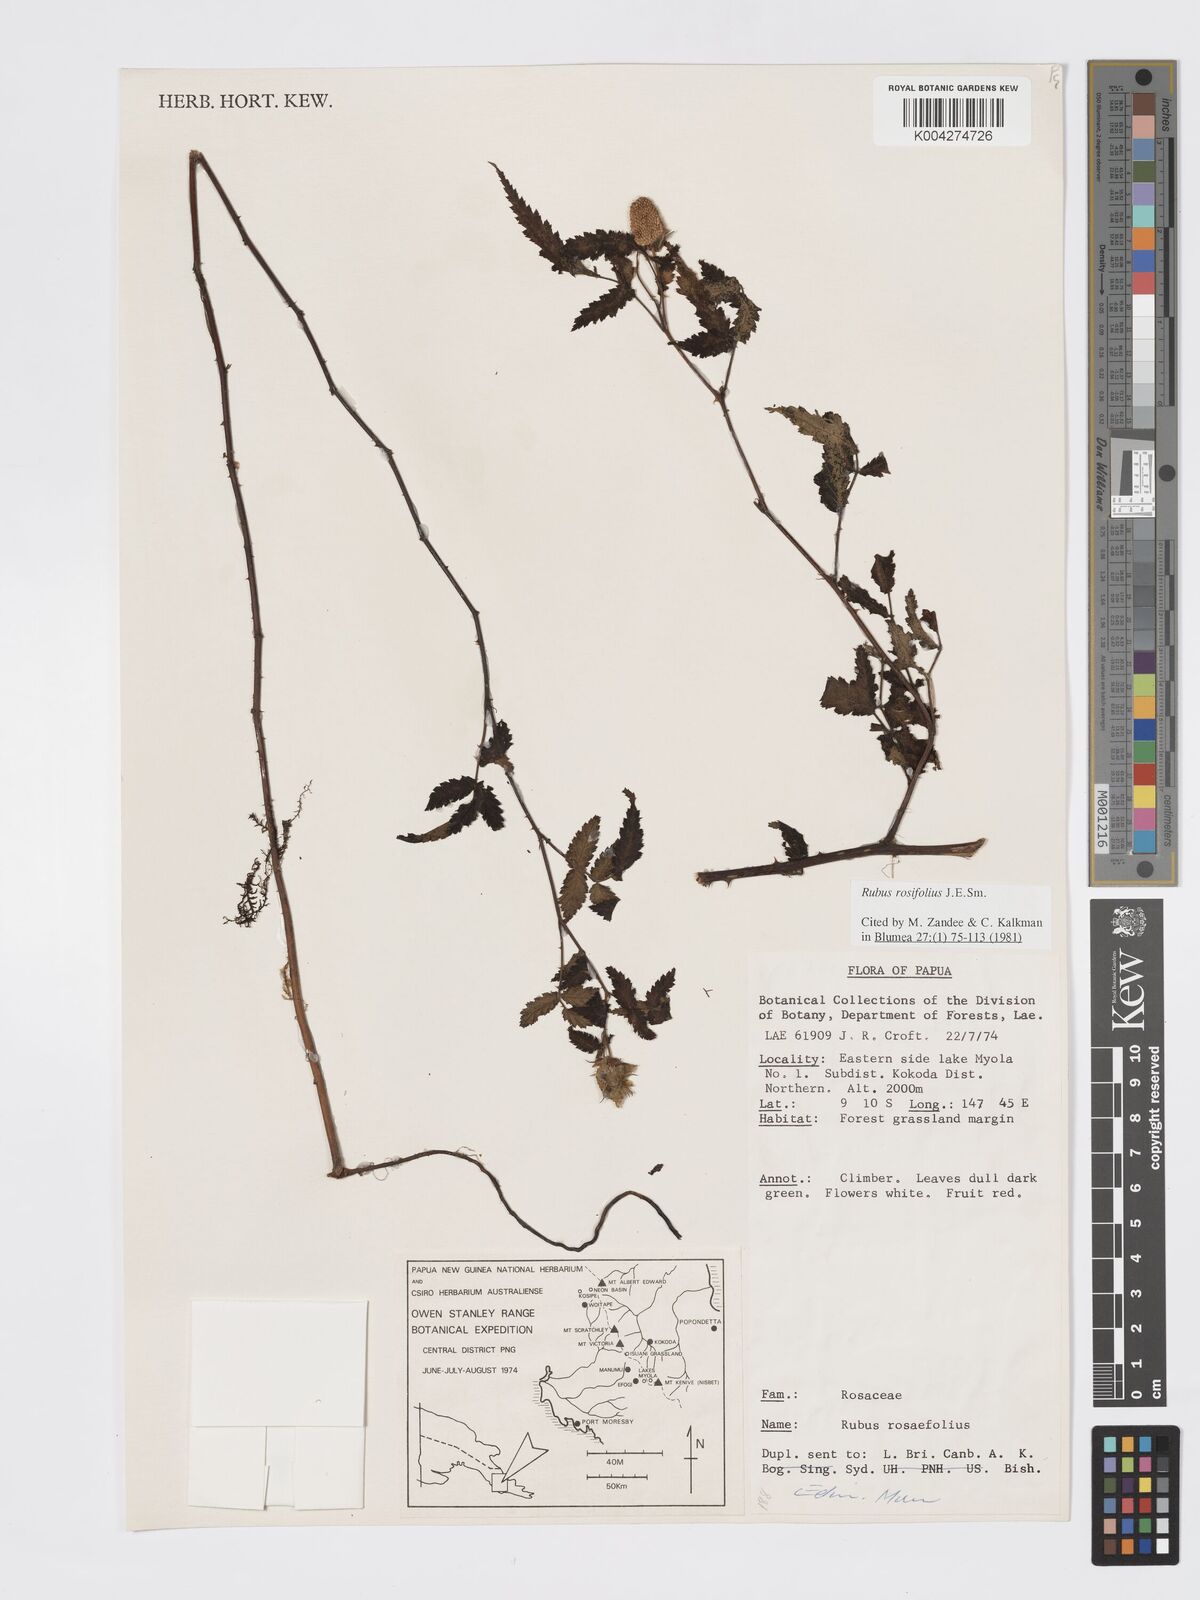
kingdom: Plantae
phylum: Tracheophyta
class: Magnoliopsida
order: Rosales
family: Rosaceae
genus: Rubus
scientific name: Rubus
